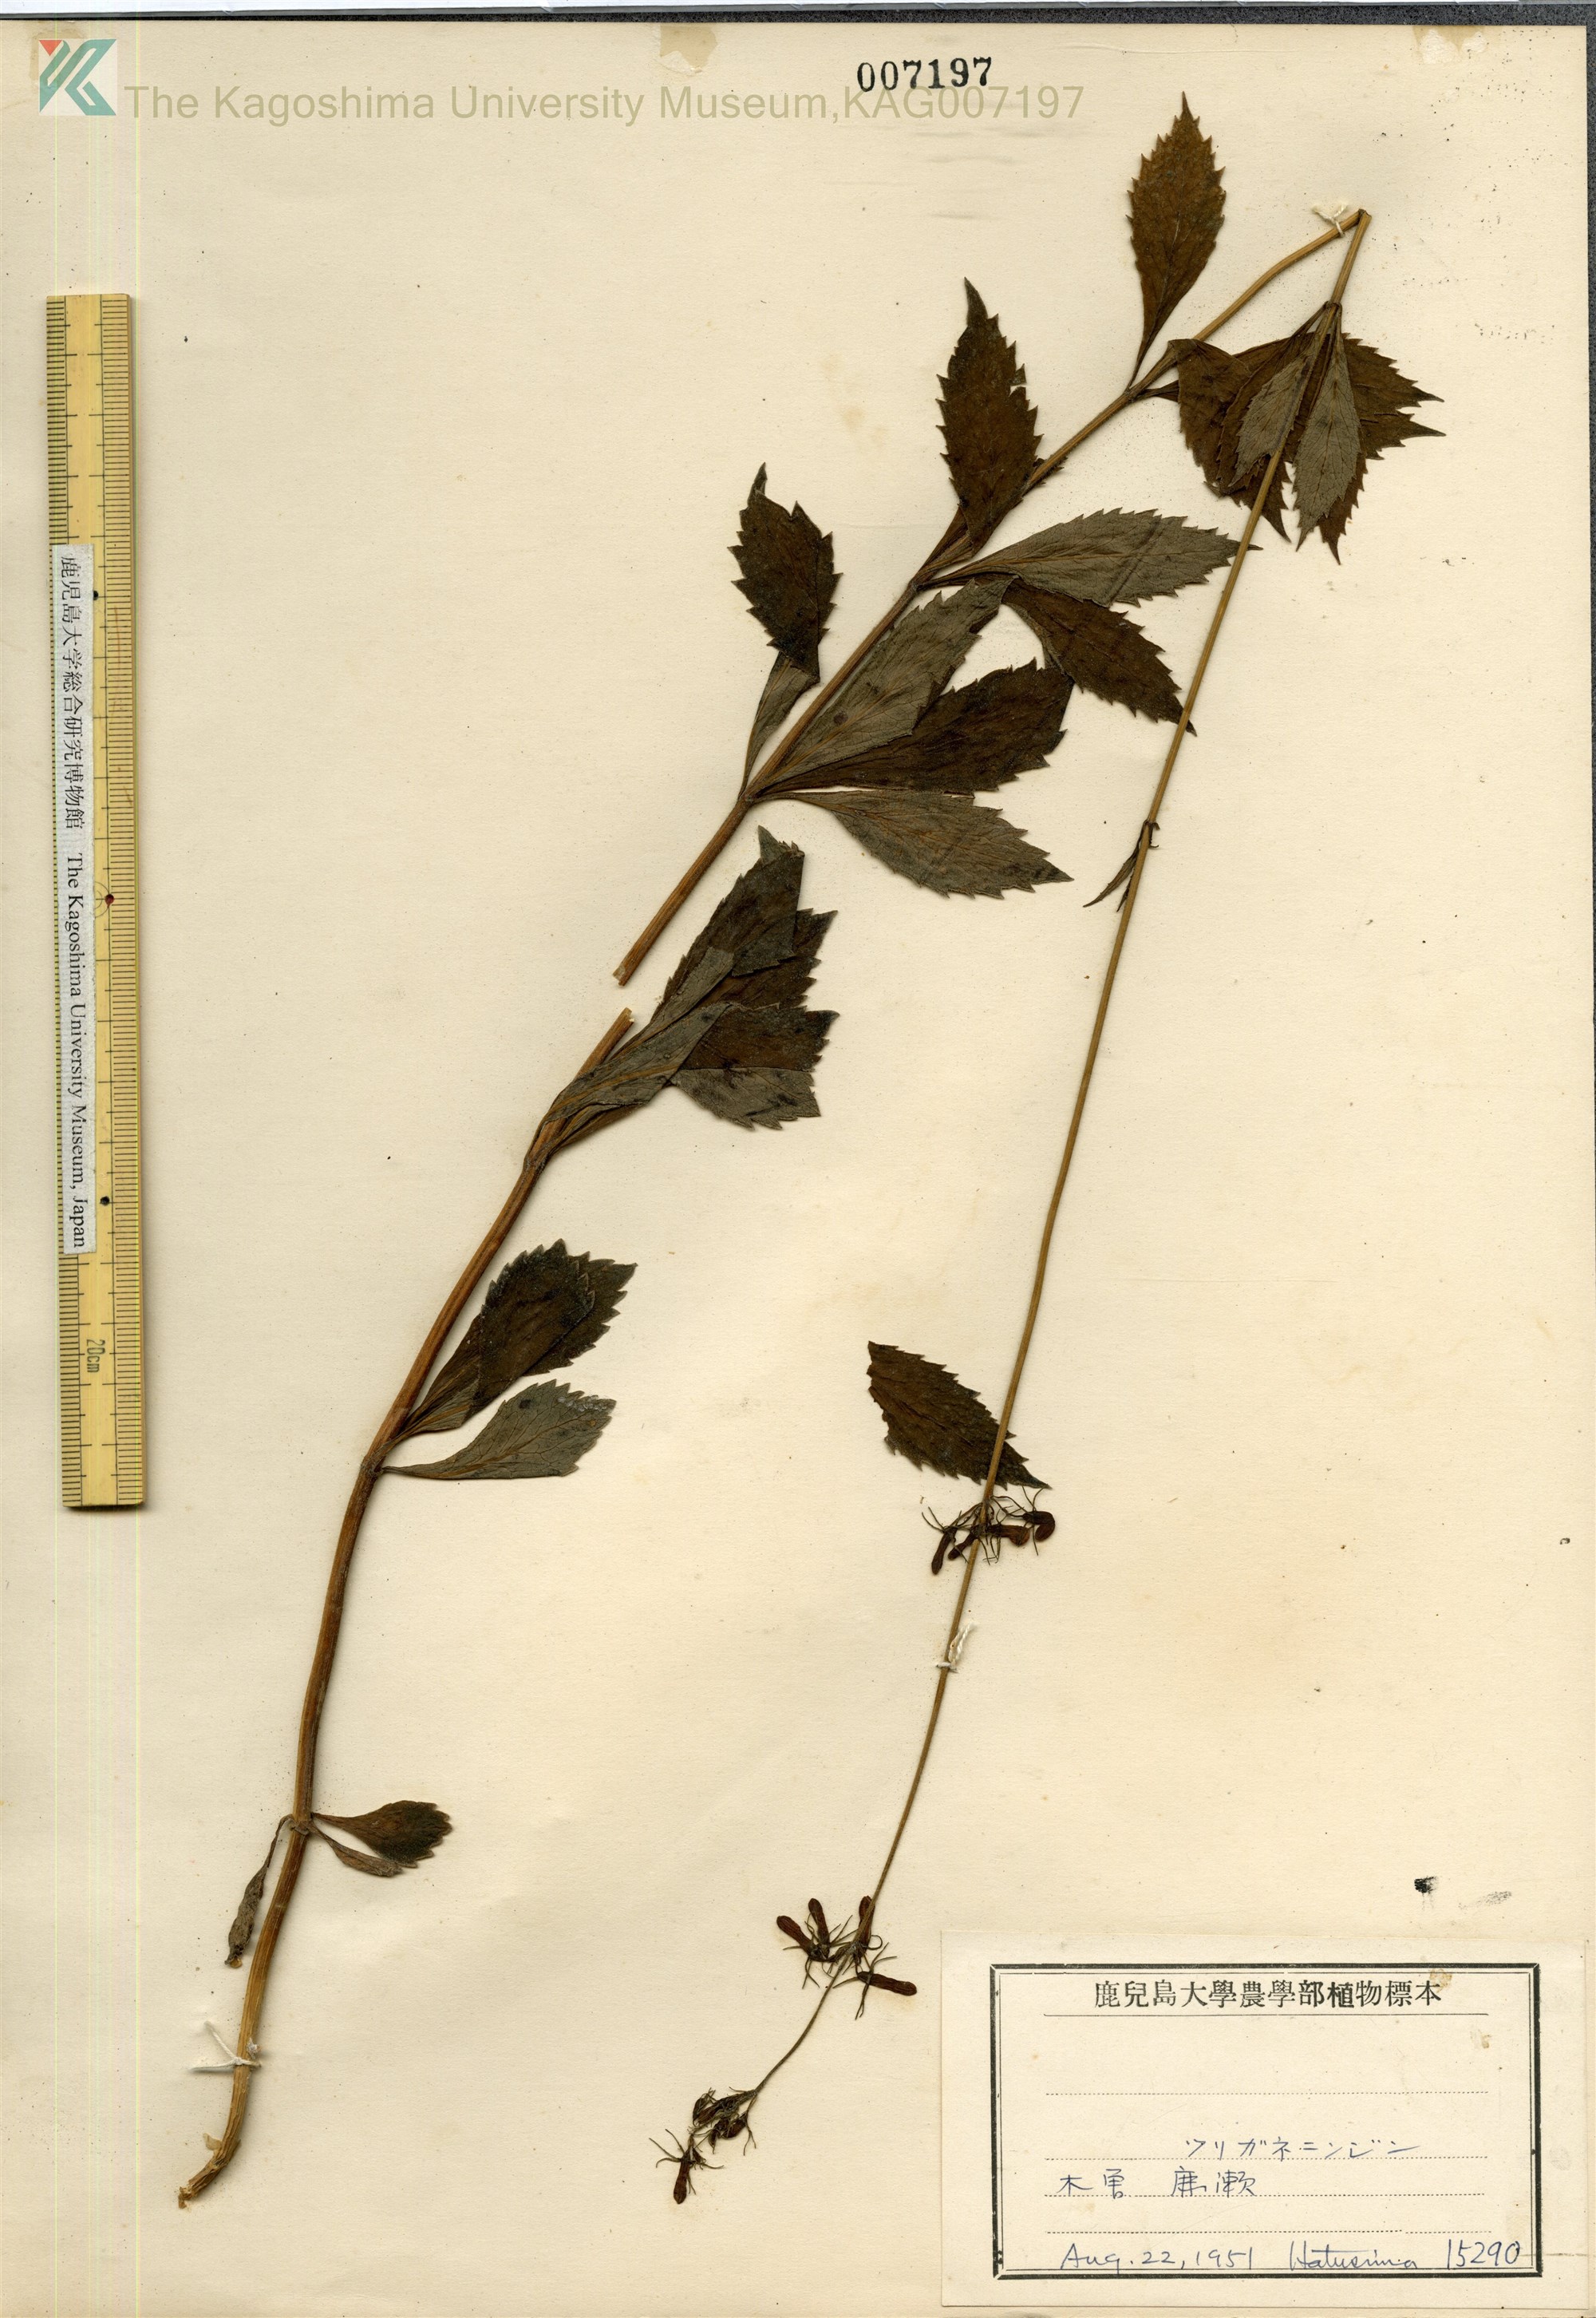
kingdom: Plantae
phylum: Tracheophyta
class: Magnoliopsida
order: Asterales
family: Campanulaceae
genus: Adenophora
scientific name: Adenophora triphylla
